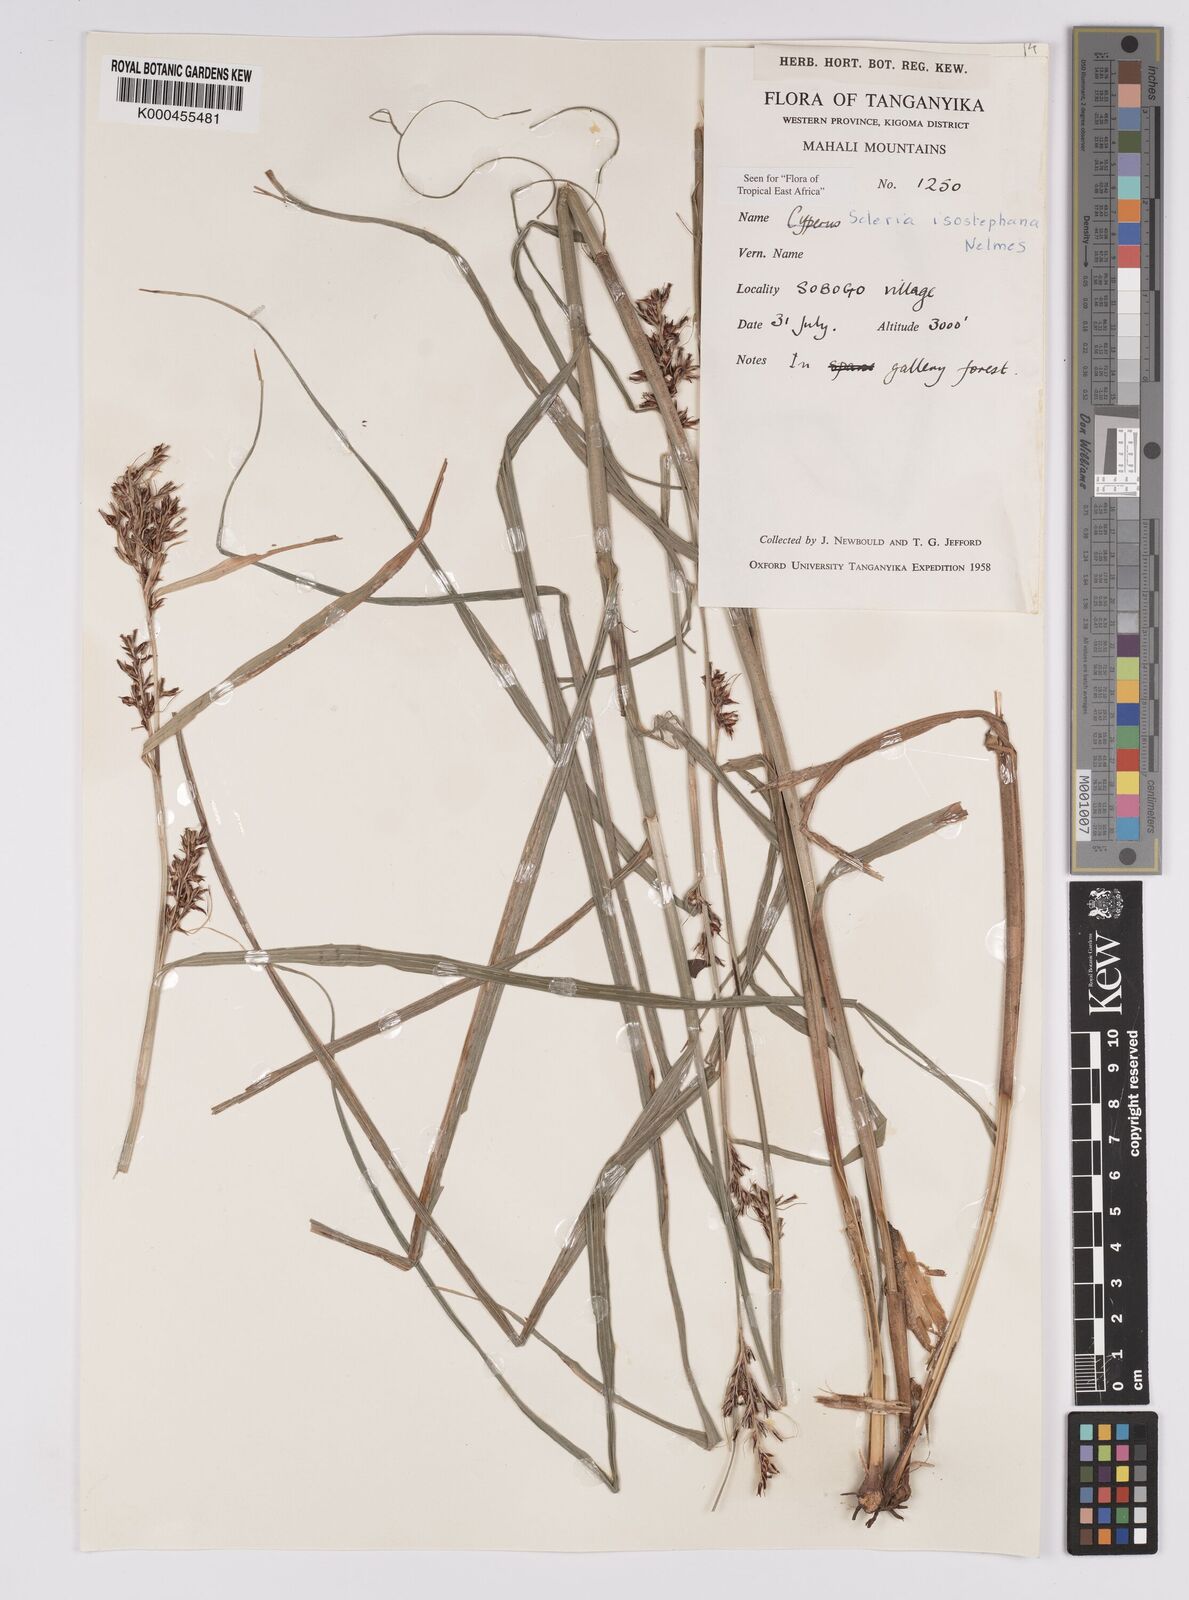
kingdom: Plantae
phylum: Tracheophyta
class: Liliopsida
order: Poales
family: Cyperaceae
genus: Scleria
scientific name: Scleria iostephana
